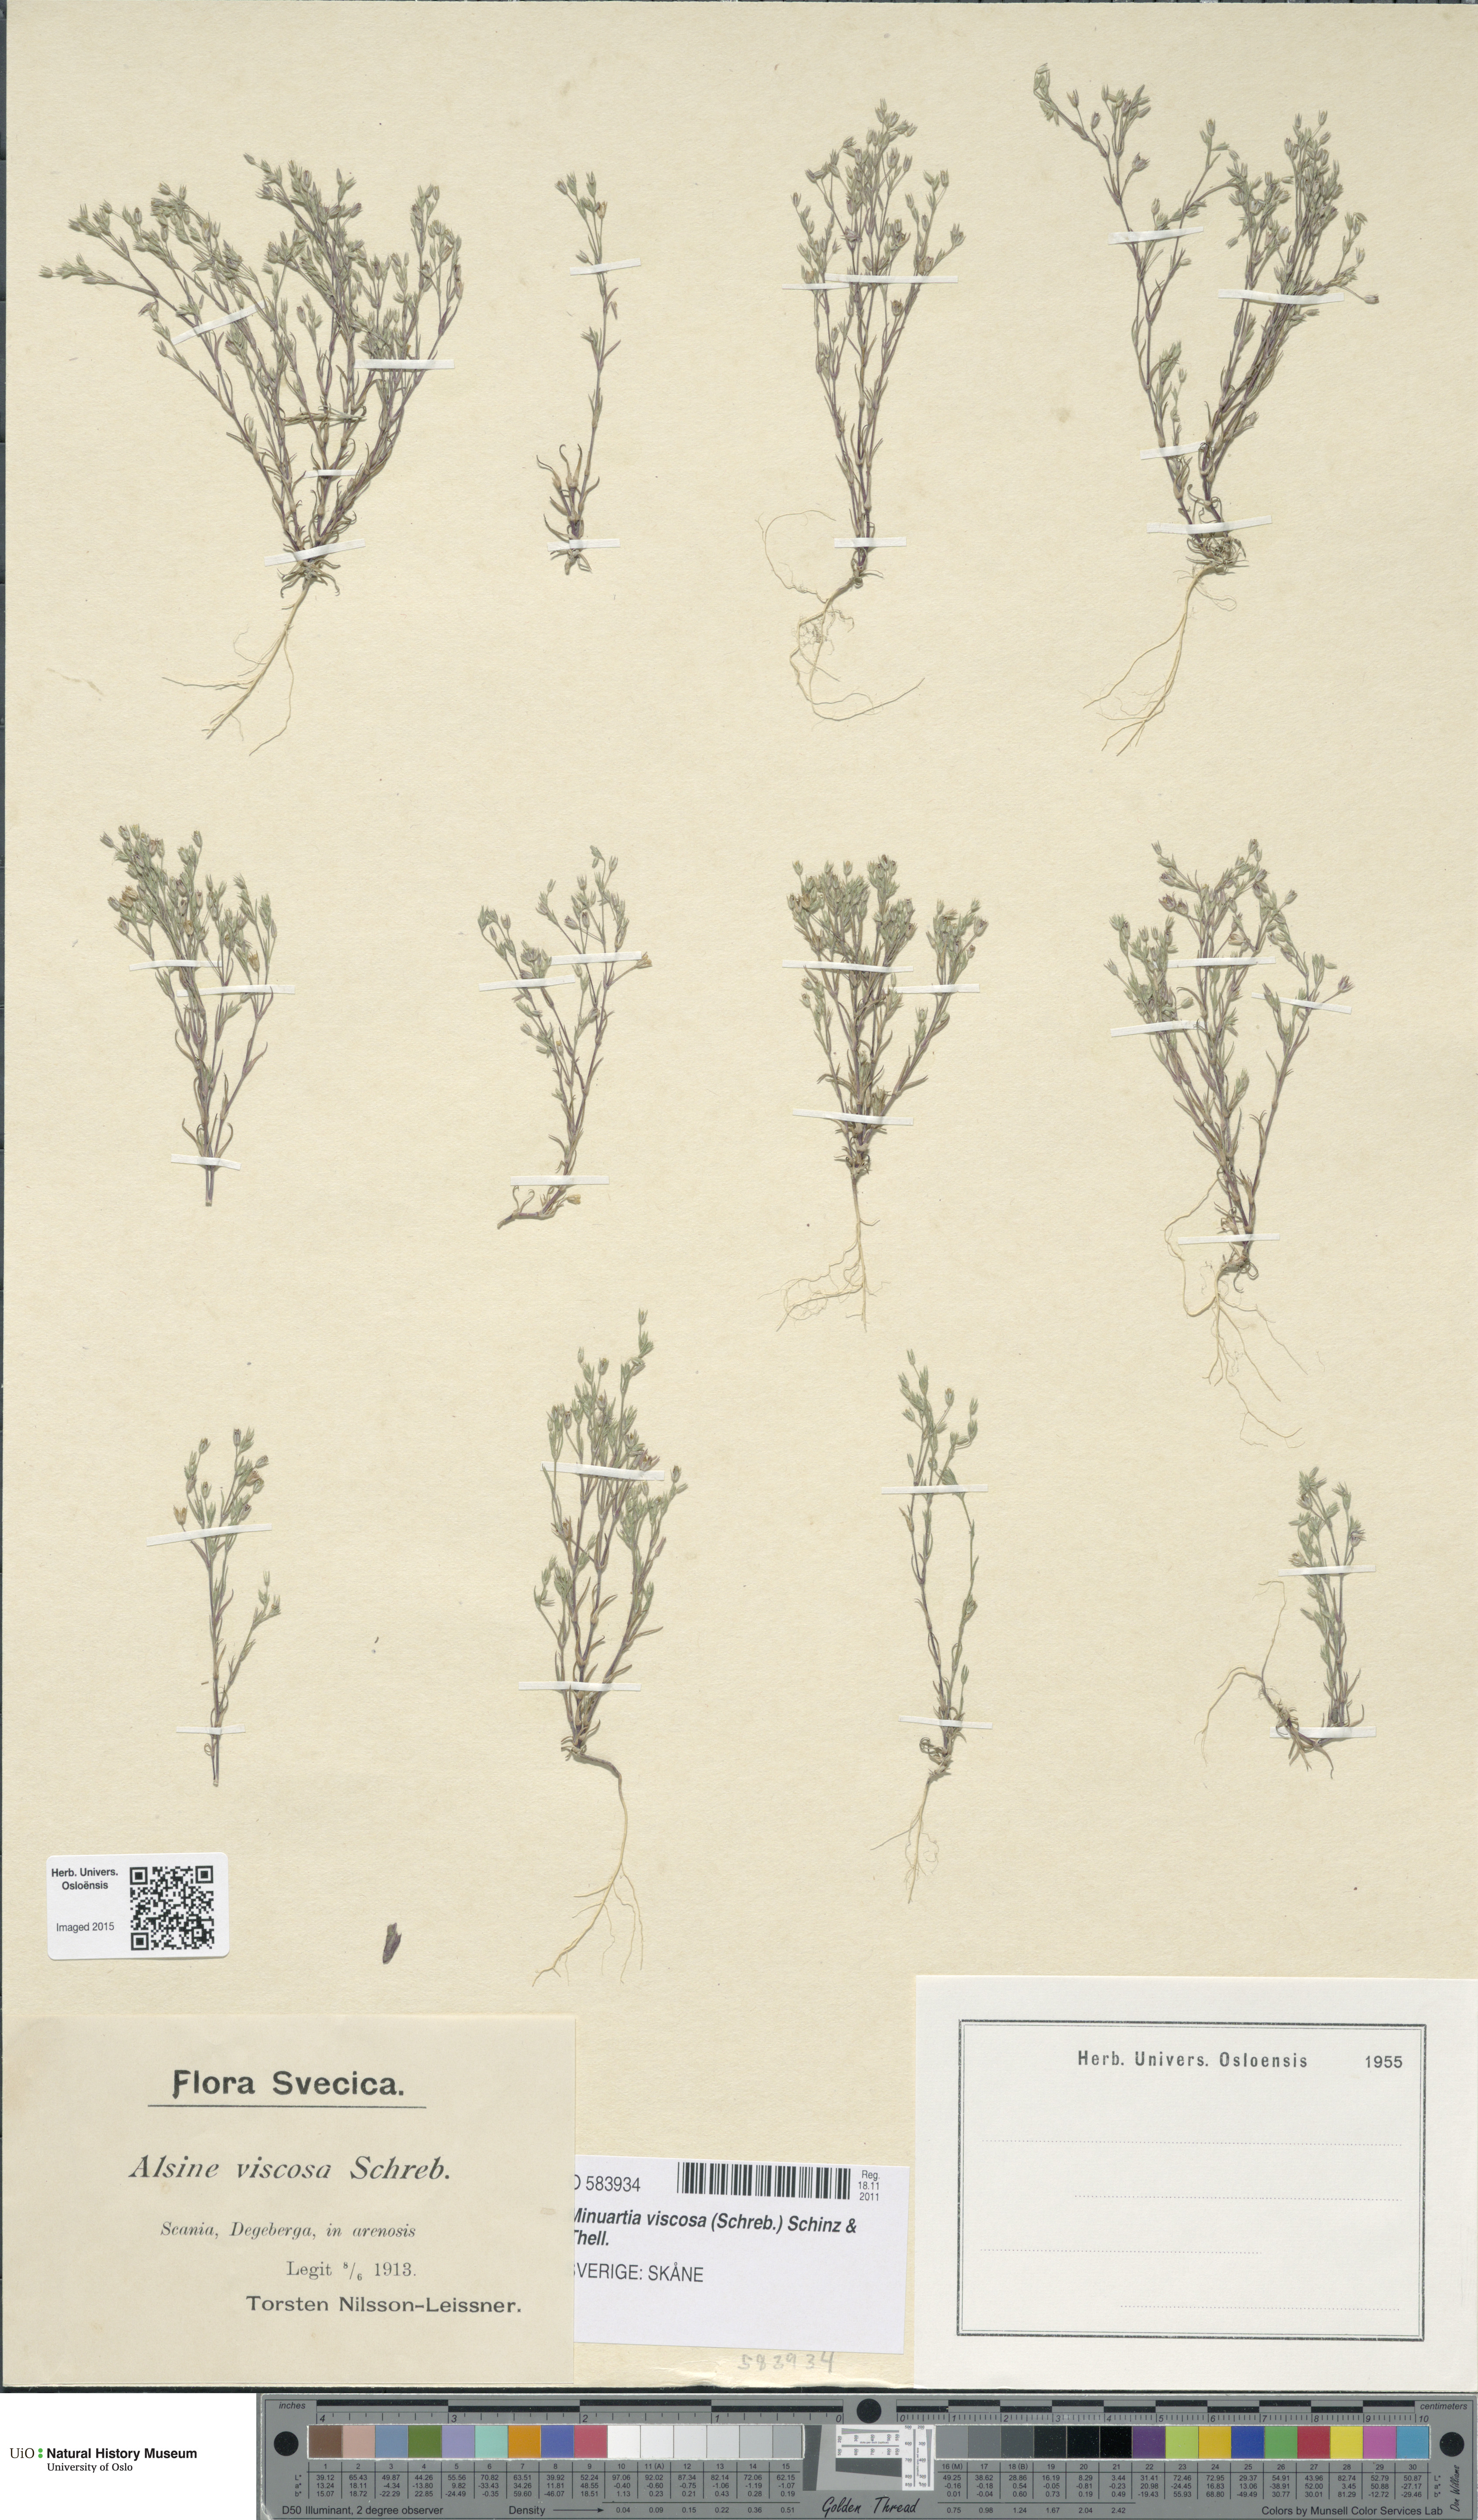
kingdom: Plantae
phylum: Tracheophyta
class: Magnoliopsida
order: Caryophyllales
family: Caryophyllaceae
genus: Sabulina
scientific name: Sabulina viscosa
